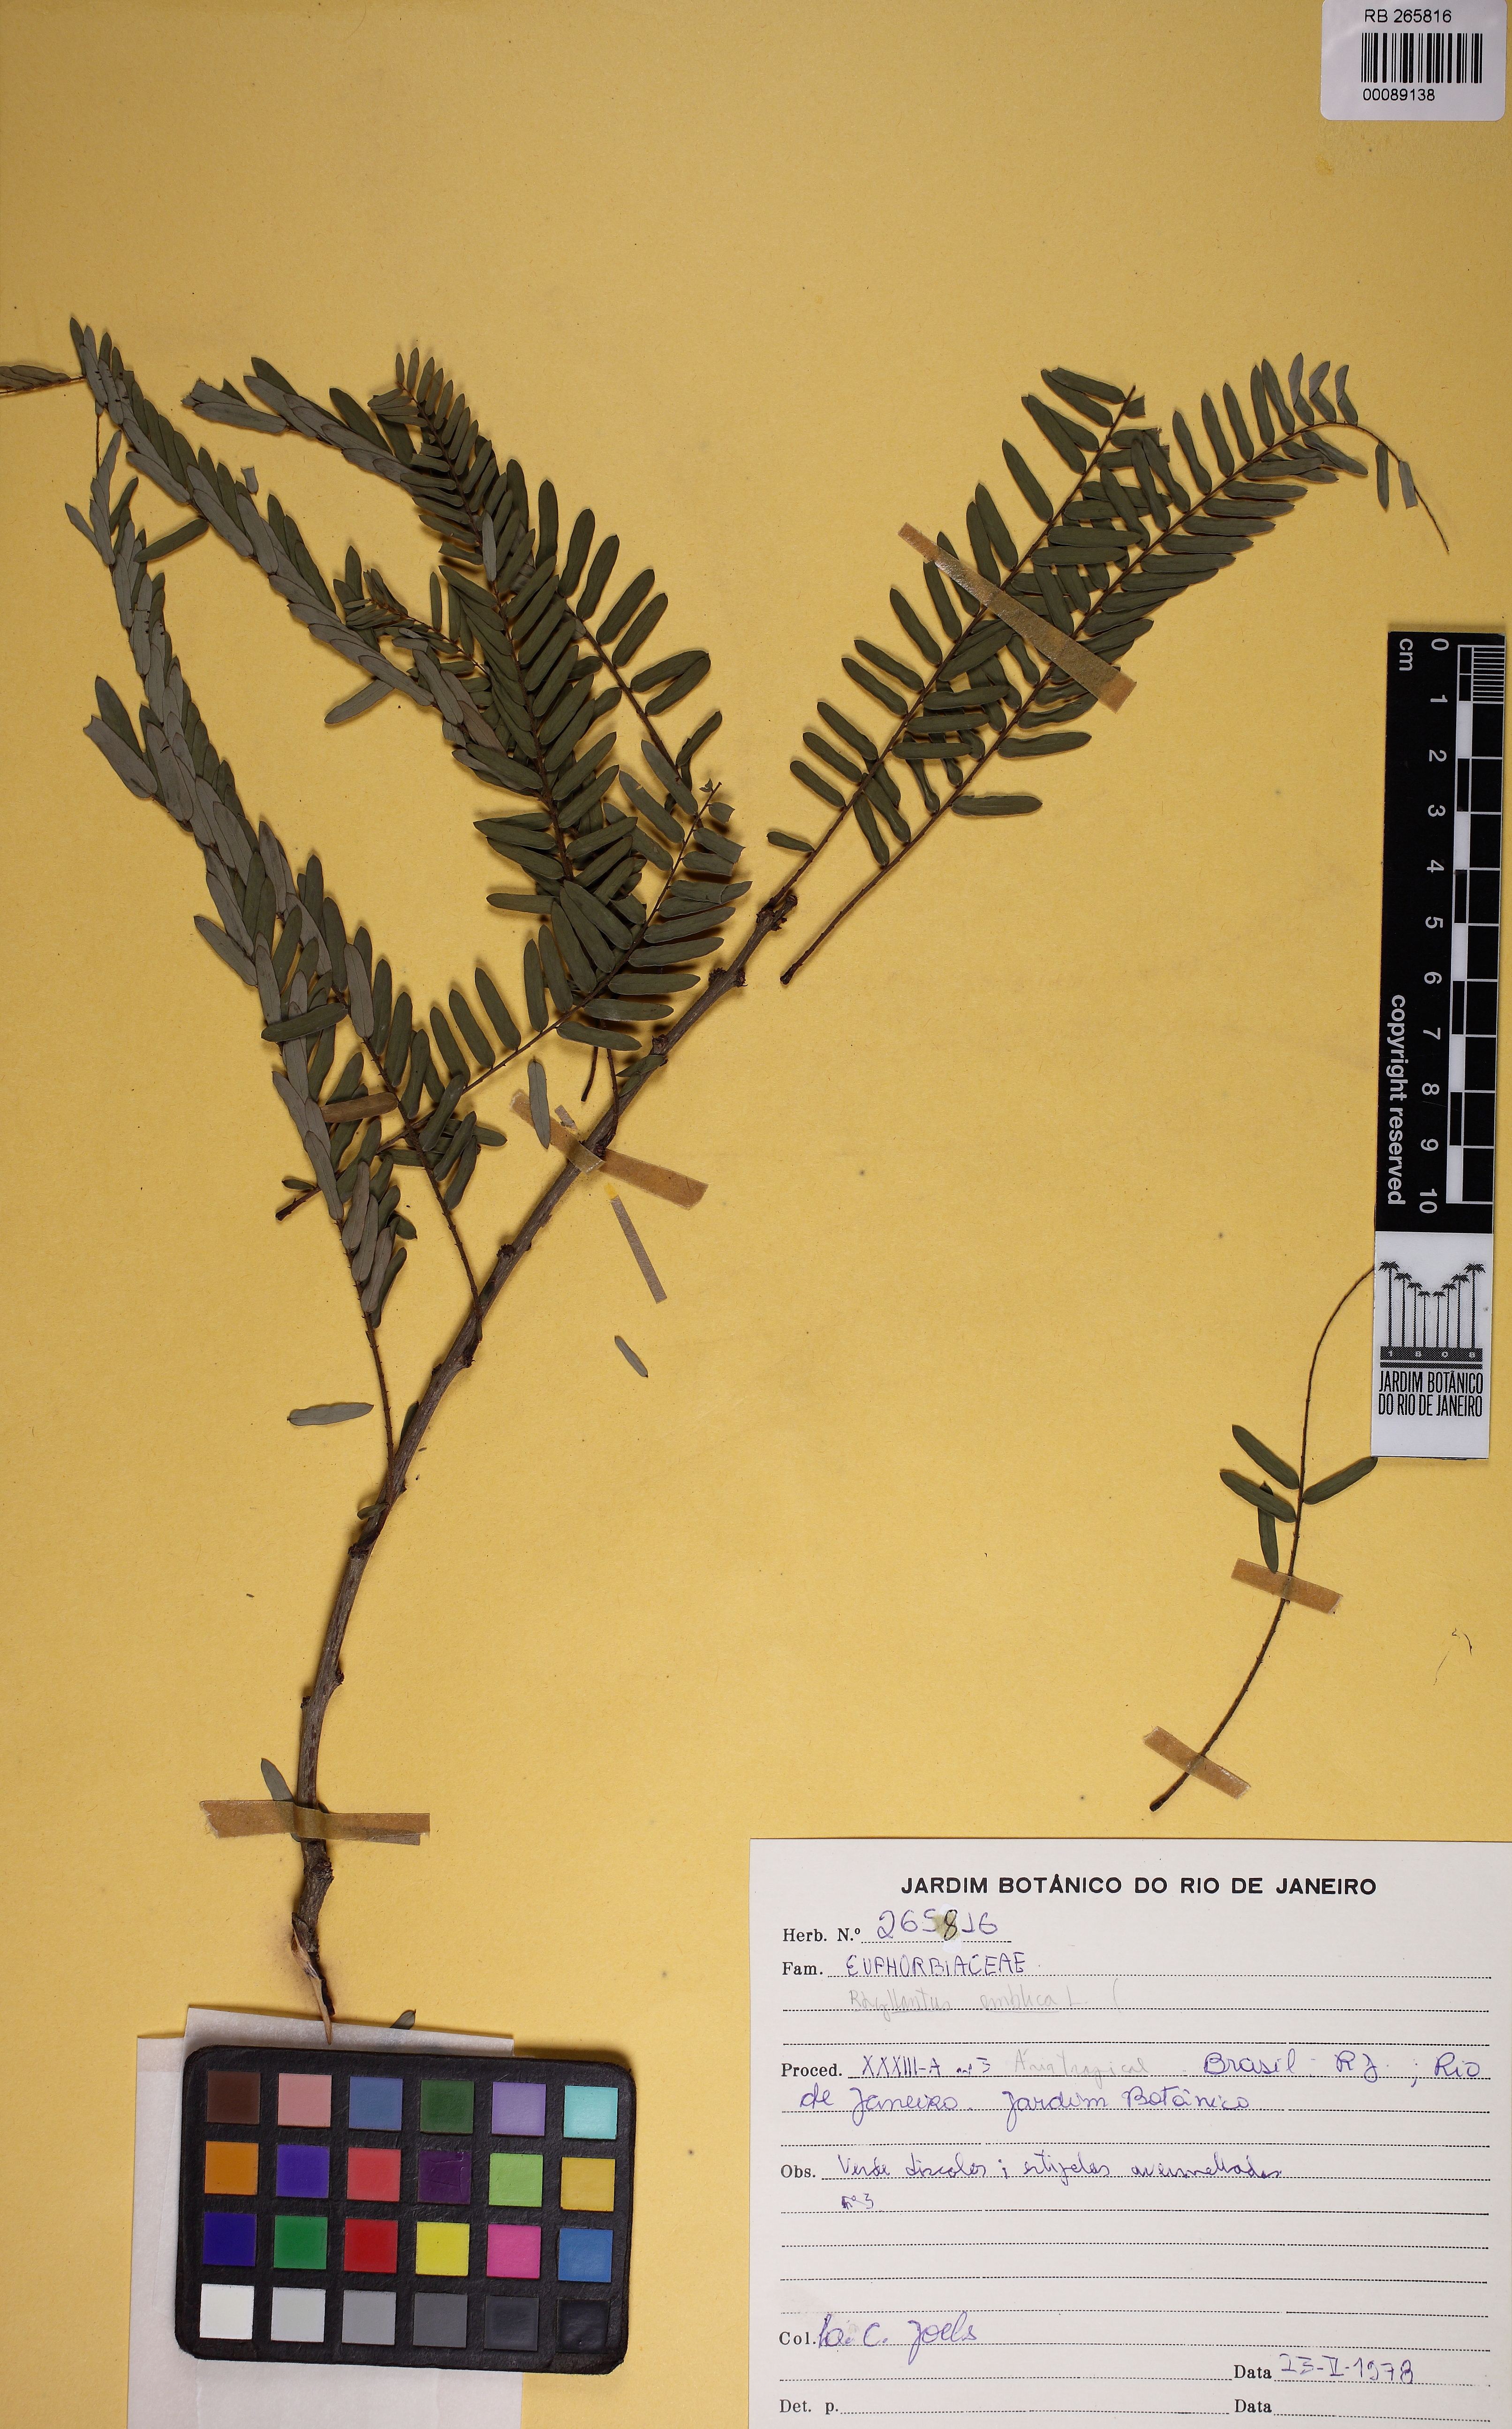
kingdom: Plantae
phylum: Tracheophyta
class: Magnoliopsida
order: Malpighiales
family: Phyllanthaceae
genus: Phyllanthus
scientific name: Phyllanthus emblica
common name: Indian gooseberry
